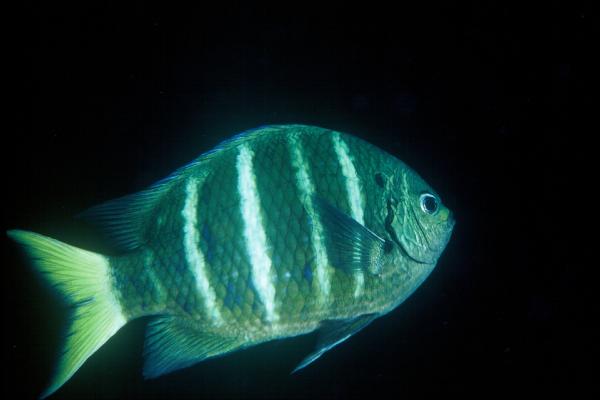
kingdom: Animalia
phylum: Chordata
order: Perciformes
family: Pomacentridae
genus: Abudefduf
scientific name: Abudefduf notatus
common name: Yellow-tail sergeant
